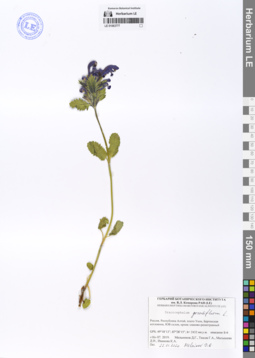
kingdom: Plantae
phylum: Tracheophyta
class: Magnoliopsida
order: Lamiales
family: Lamiaceae
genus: Dracocephalum
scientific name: Dracocephalum grandiflorum
